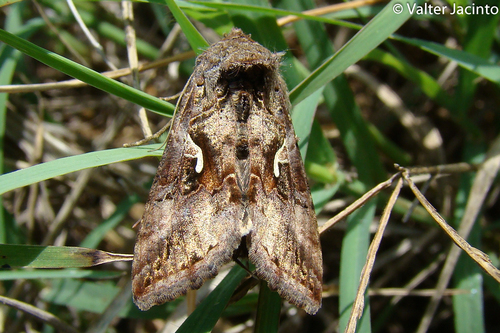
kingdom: Animalia
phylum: Arthropoda
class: Insecta
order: Lepidoptera
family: Noctuidae
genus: Autographa
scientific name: Autographa gamma
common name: Silver y
